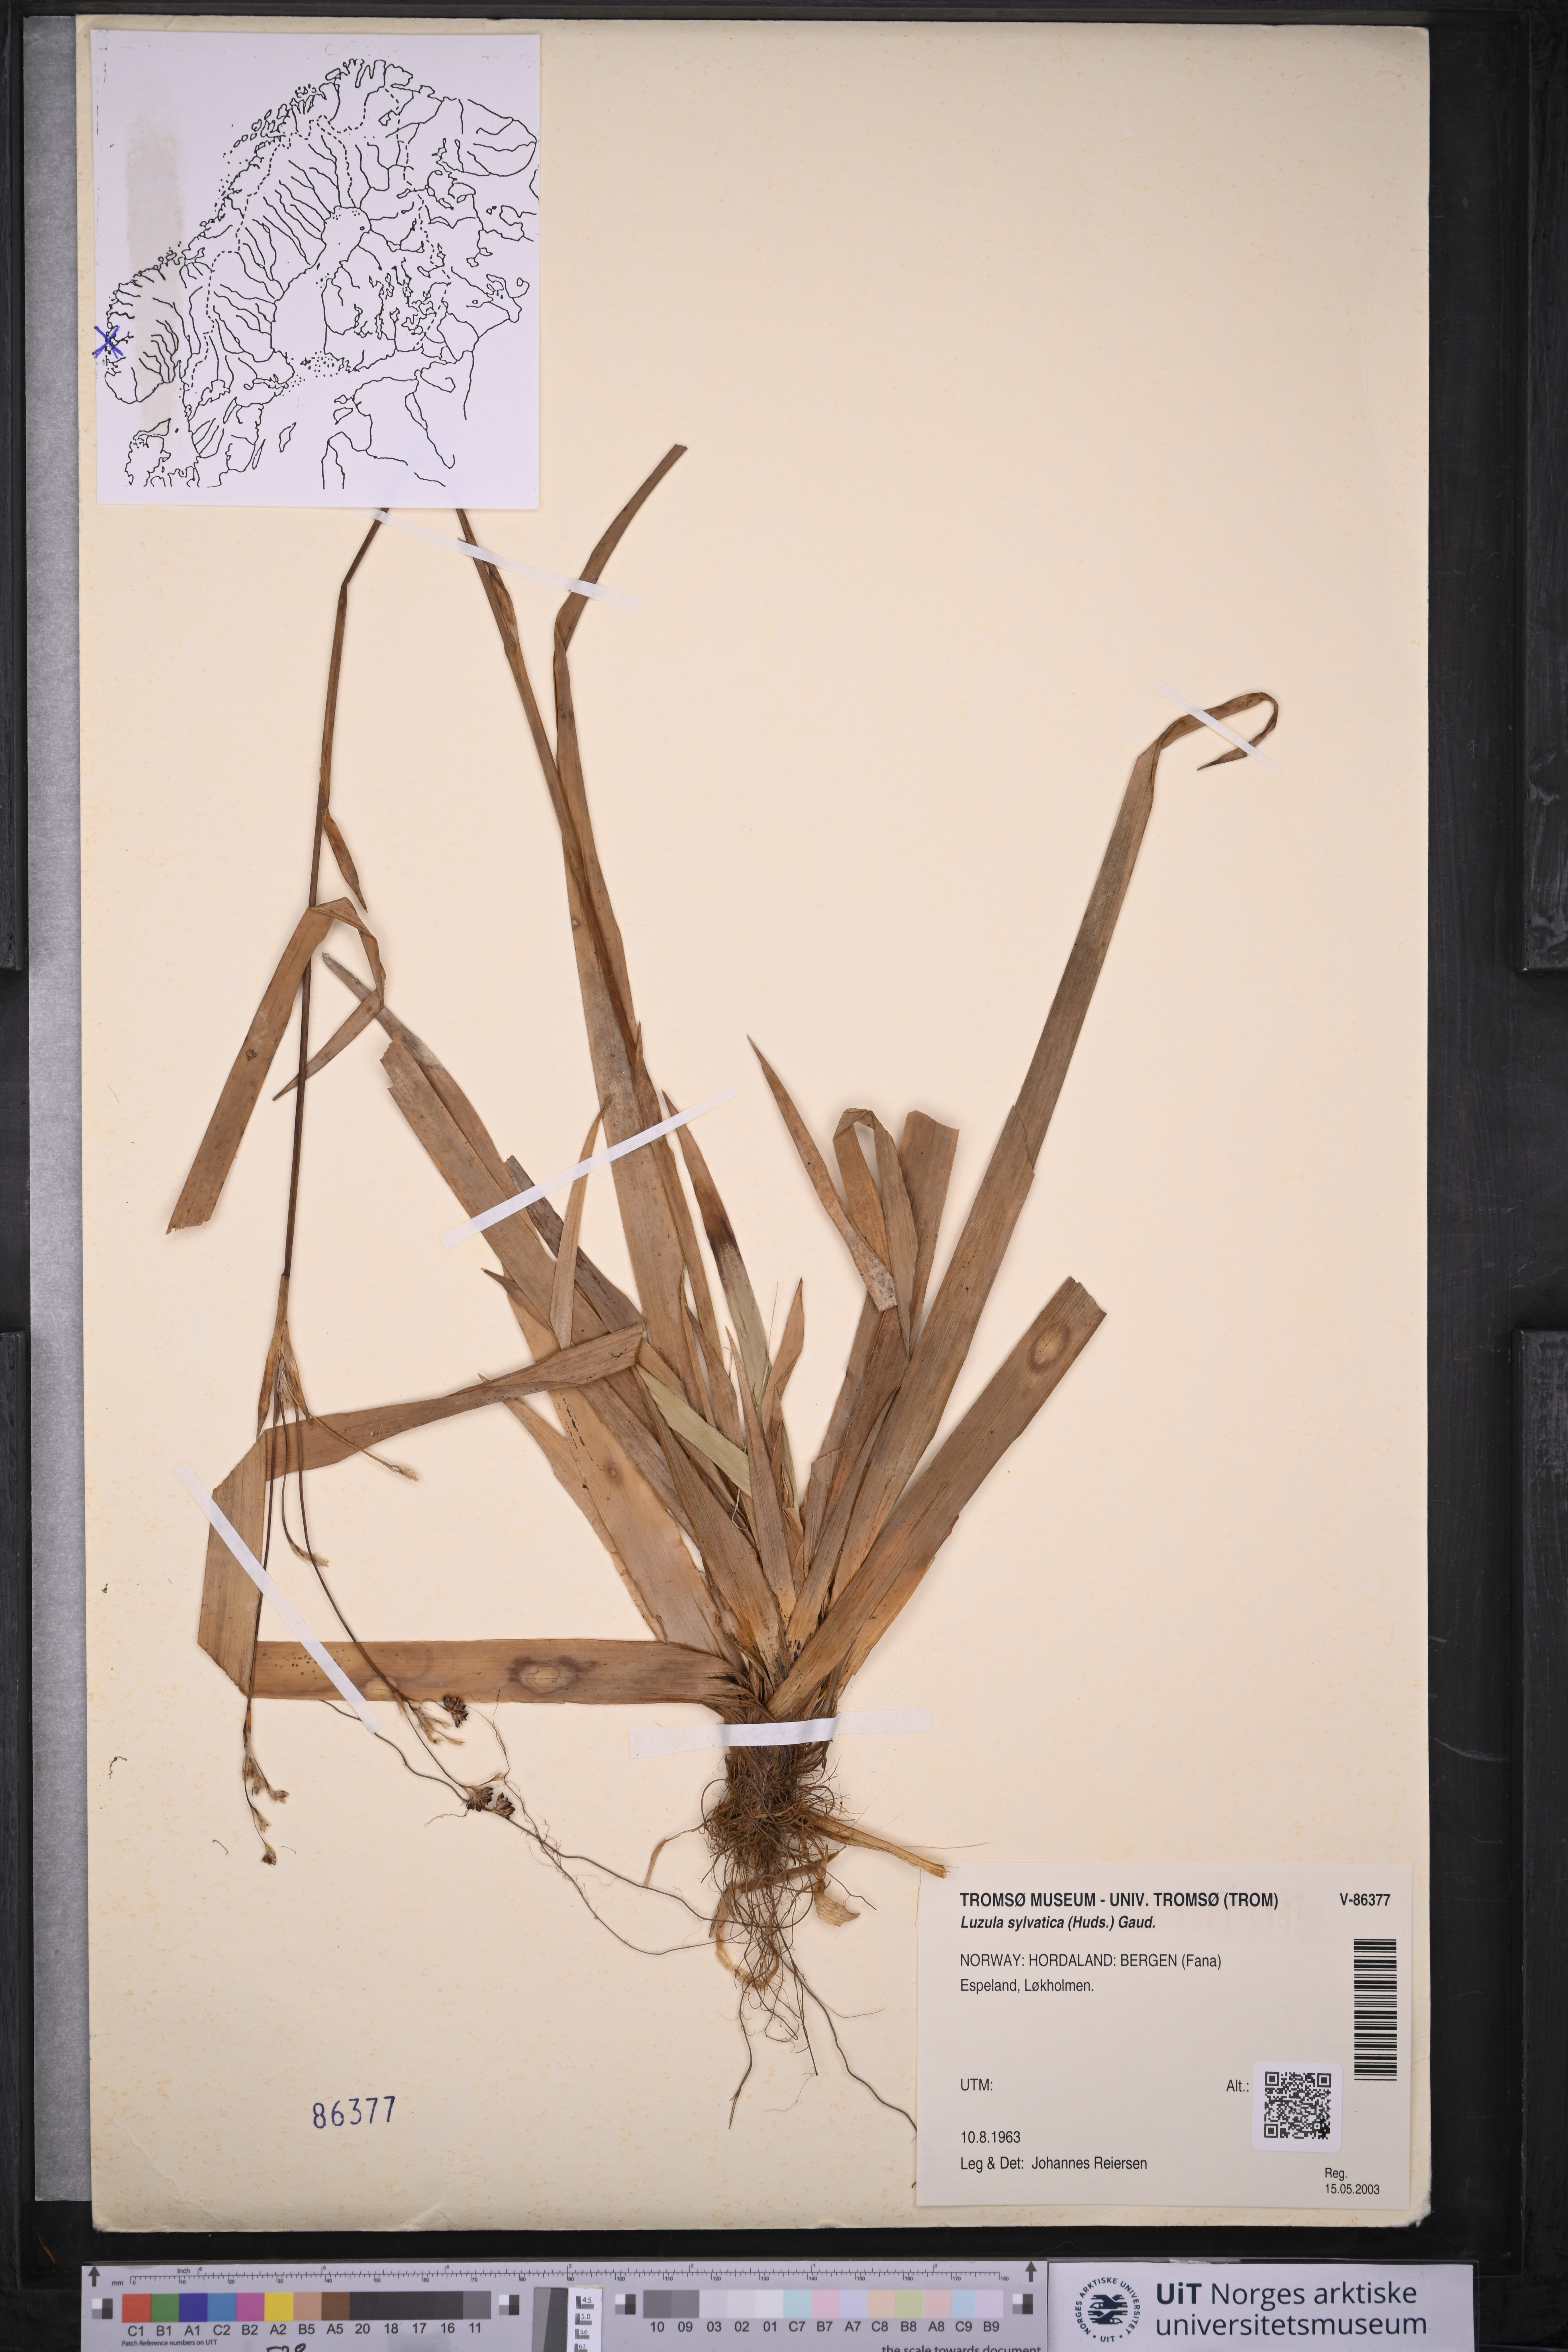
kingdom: Plantae
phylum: Tracheophyta
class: Liliopsida
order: Poales
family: Juncaceae
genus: Luzula
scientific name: Luzula sylvatica
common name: Great wood-rush
